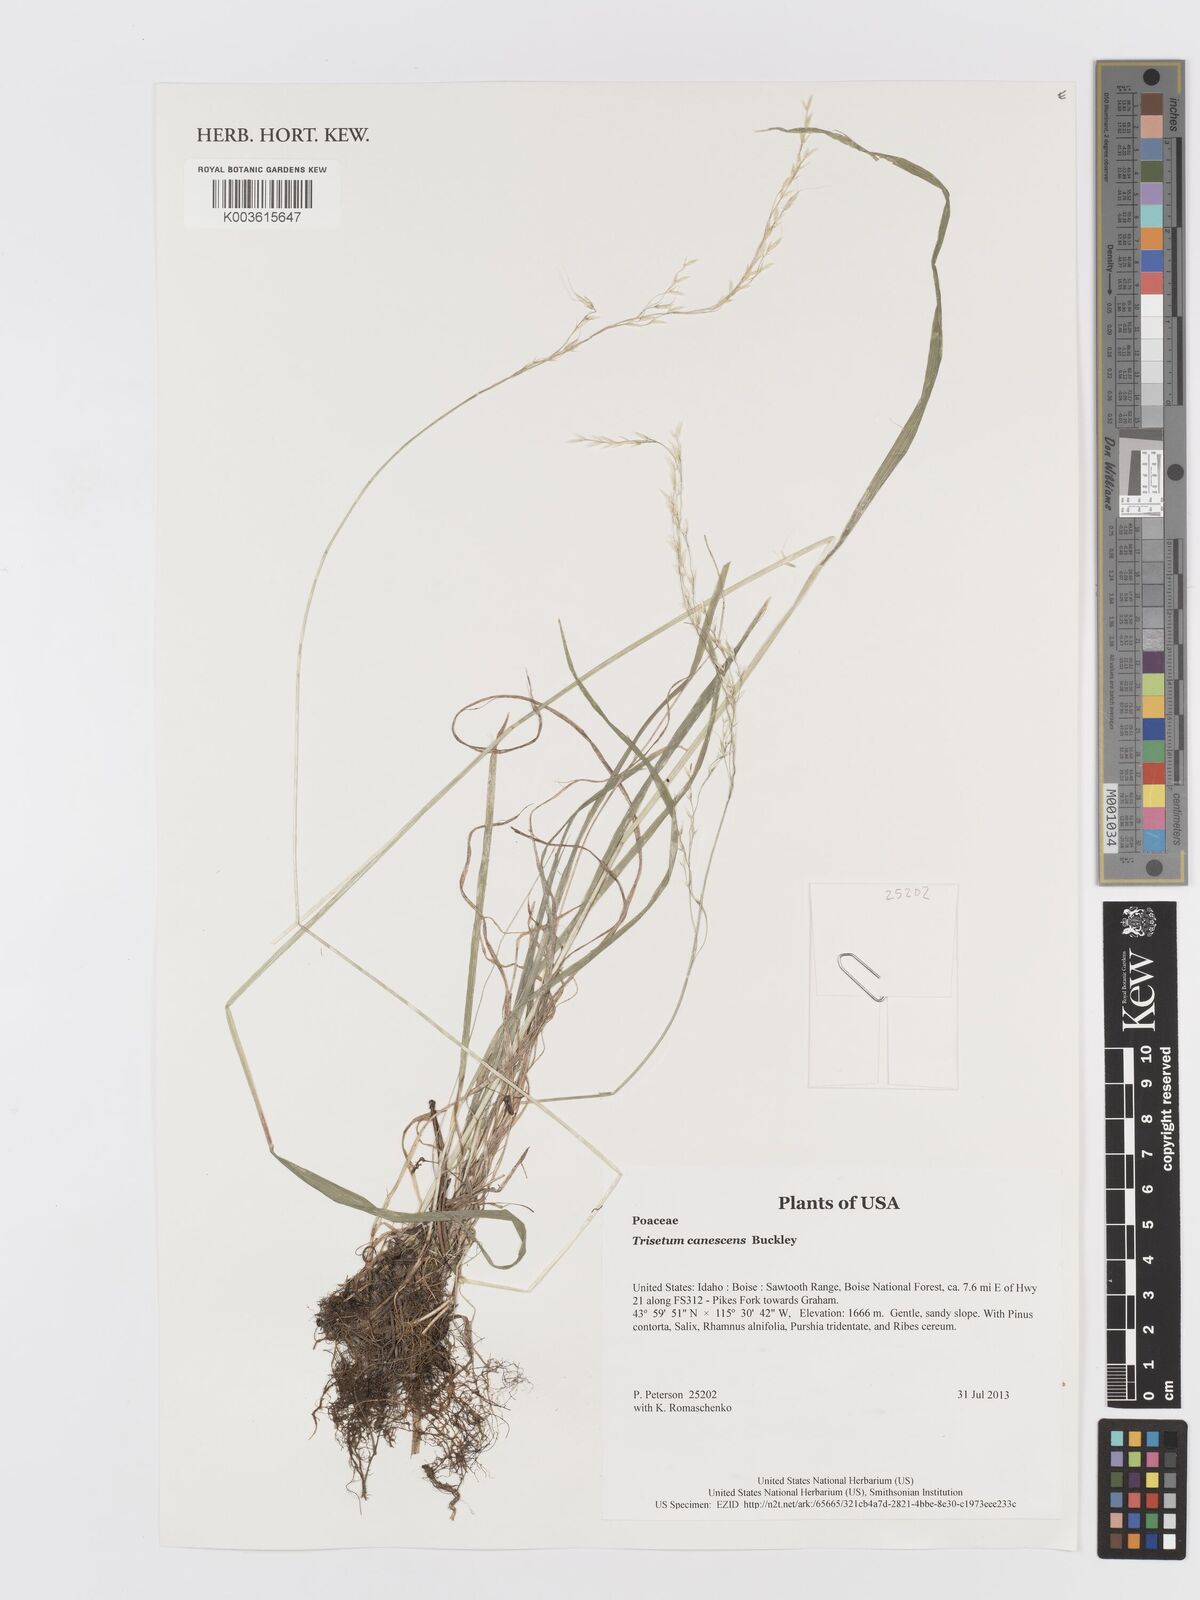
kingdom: Plantae
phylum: Tracheophyta
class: Liliopsida
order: Poales
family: Poaceae
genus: Koeleria
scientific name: Koeleria spicata
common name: Mountain trisetum
